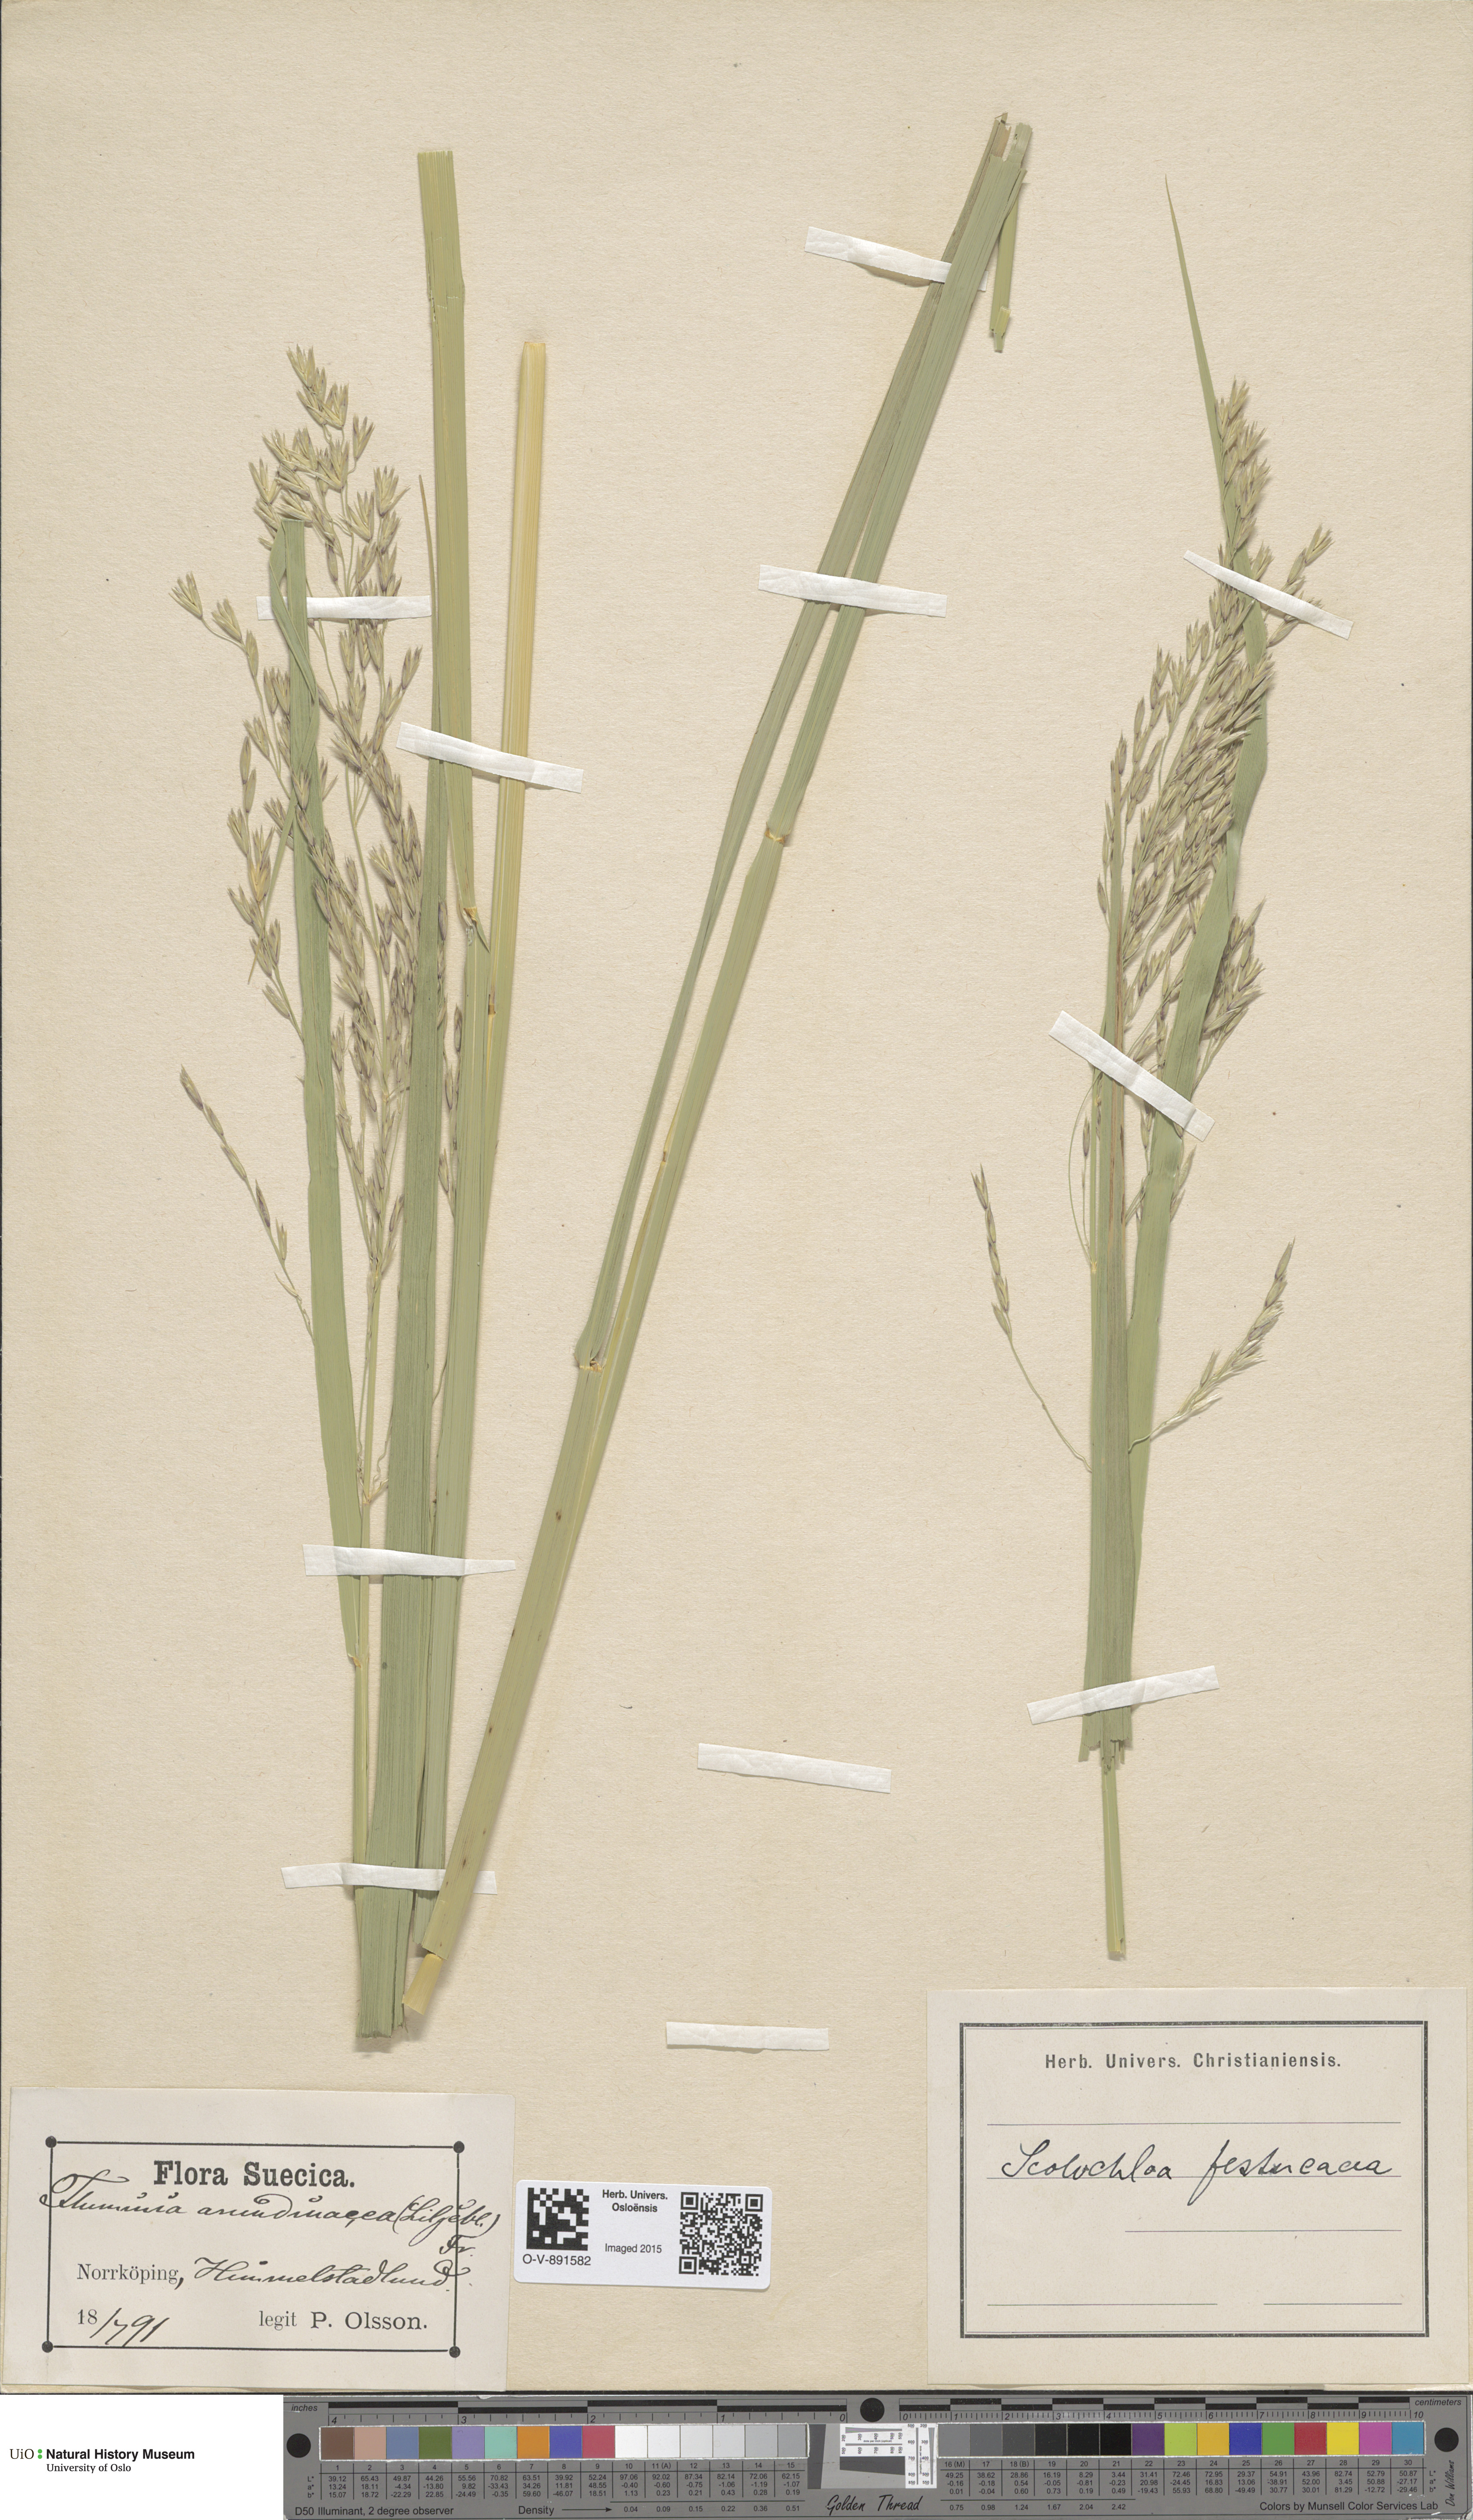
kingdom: Plantae
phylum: Tracheophyta
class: Liliopsida
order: Poales
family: Poaceae
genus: Scolochloa
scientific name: Scolochloa festucacea
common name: Common rivergrass
